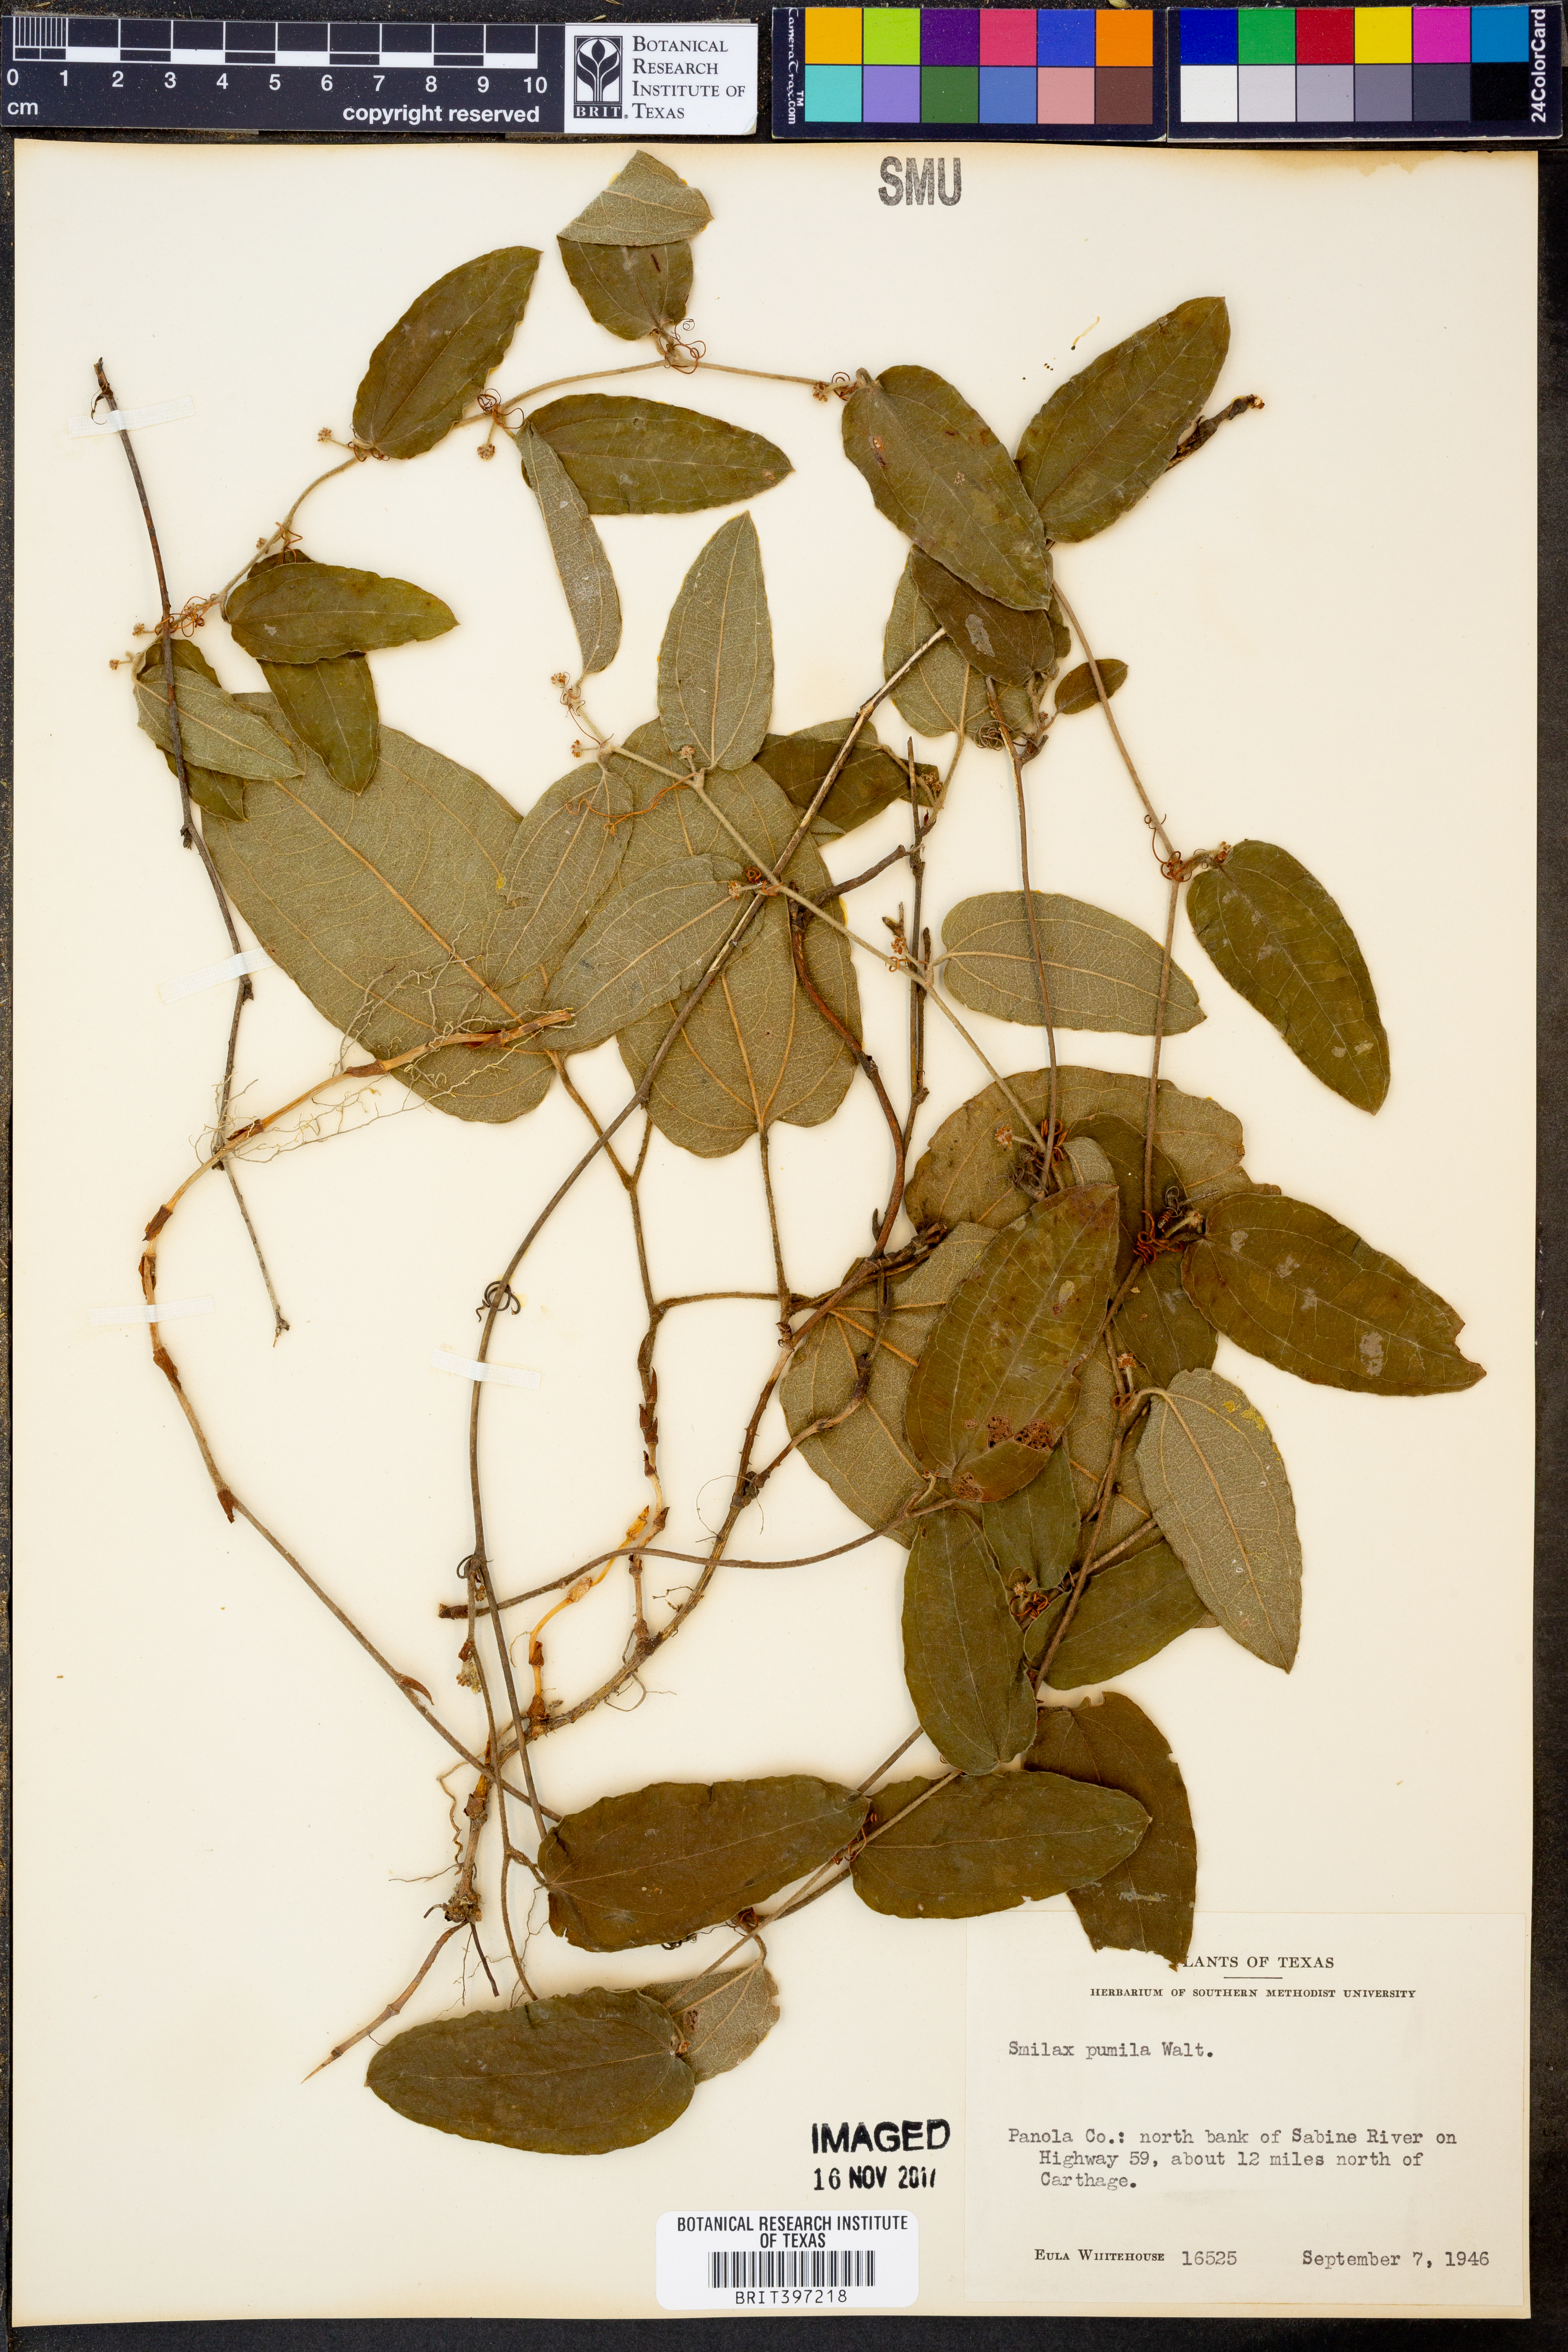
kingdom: Plantae
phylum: Tracheophyta
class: Liliopsida
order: Liliales
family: Smilacaceae
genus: Smilax
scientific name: Smilax pumila
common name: Sarsaparilla-vine
